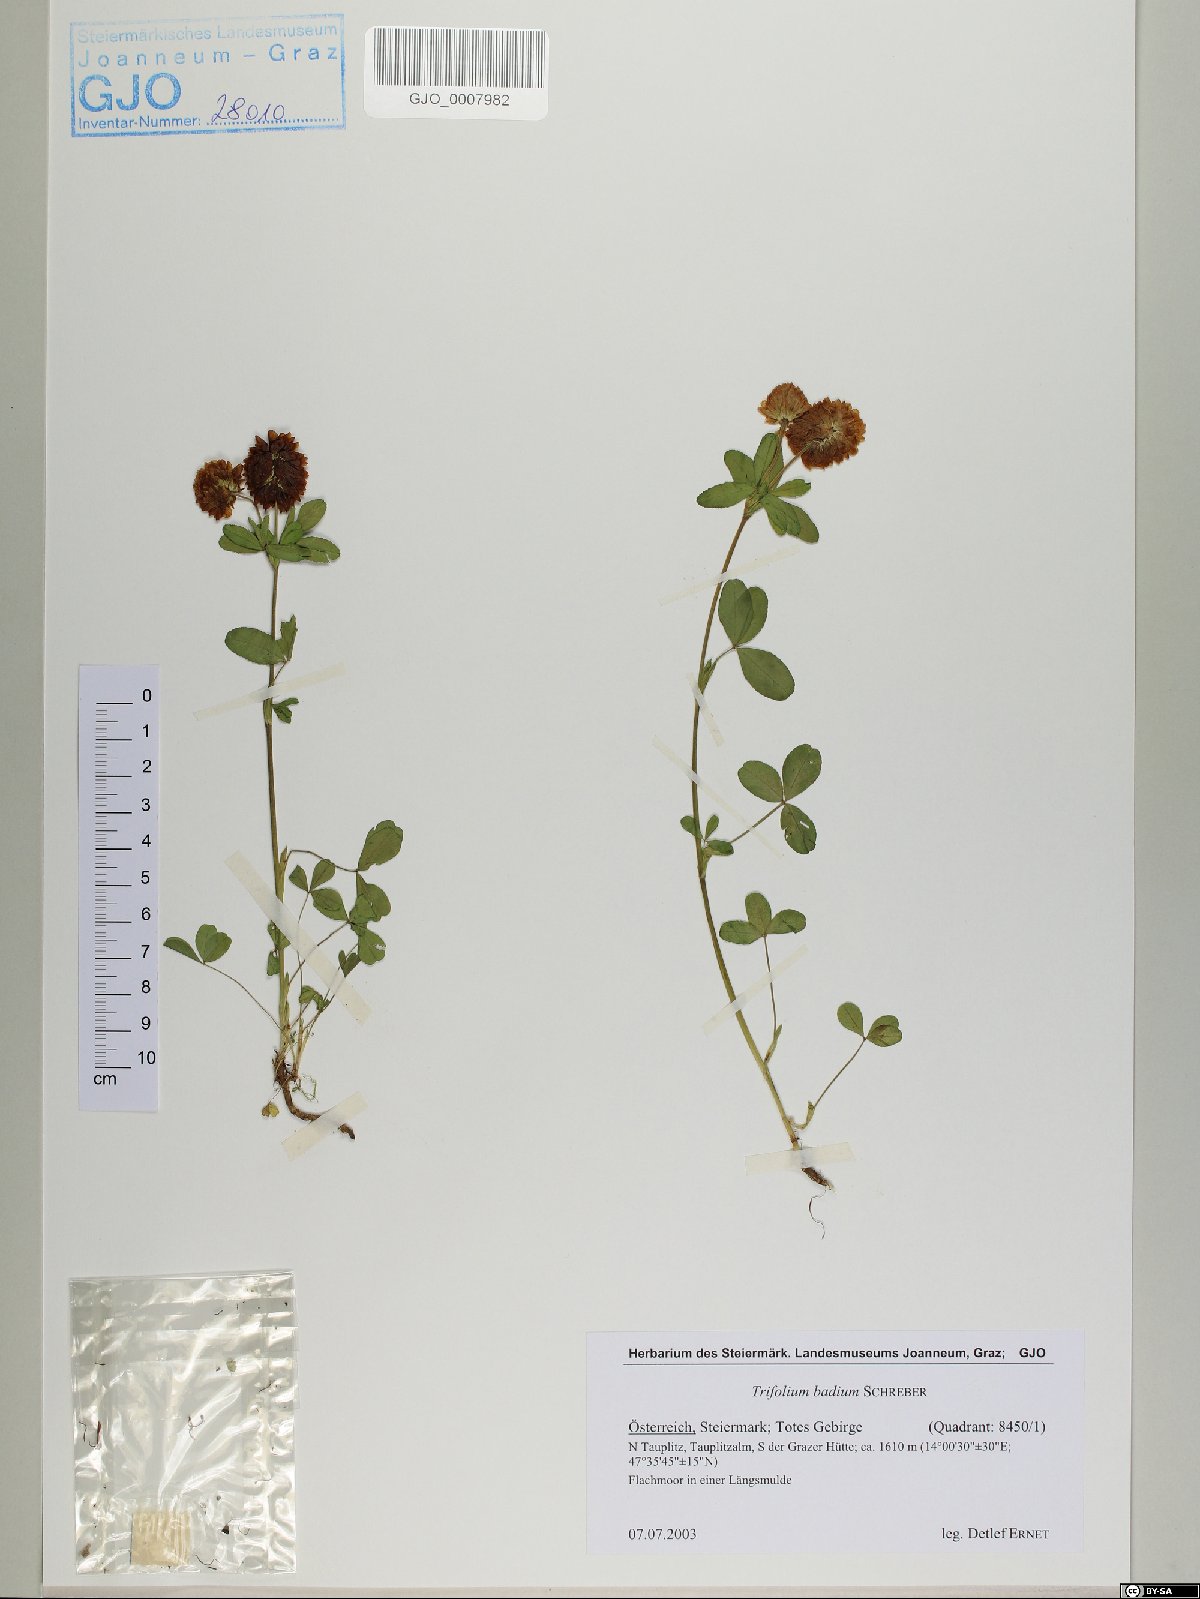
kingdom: Plantae
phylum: Tracheophyta
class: Magnoliopsida
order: Fabales
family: Fabaceae
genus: Trifolium
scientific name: Trifolium badium
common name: Brown clover
